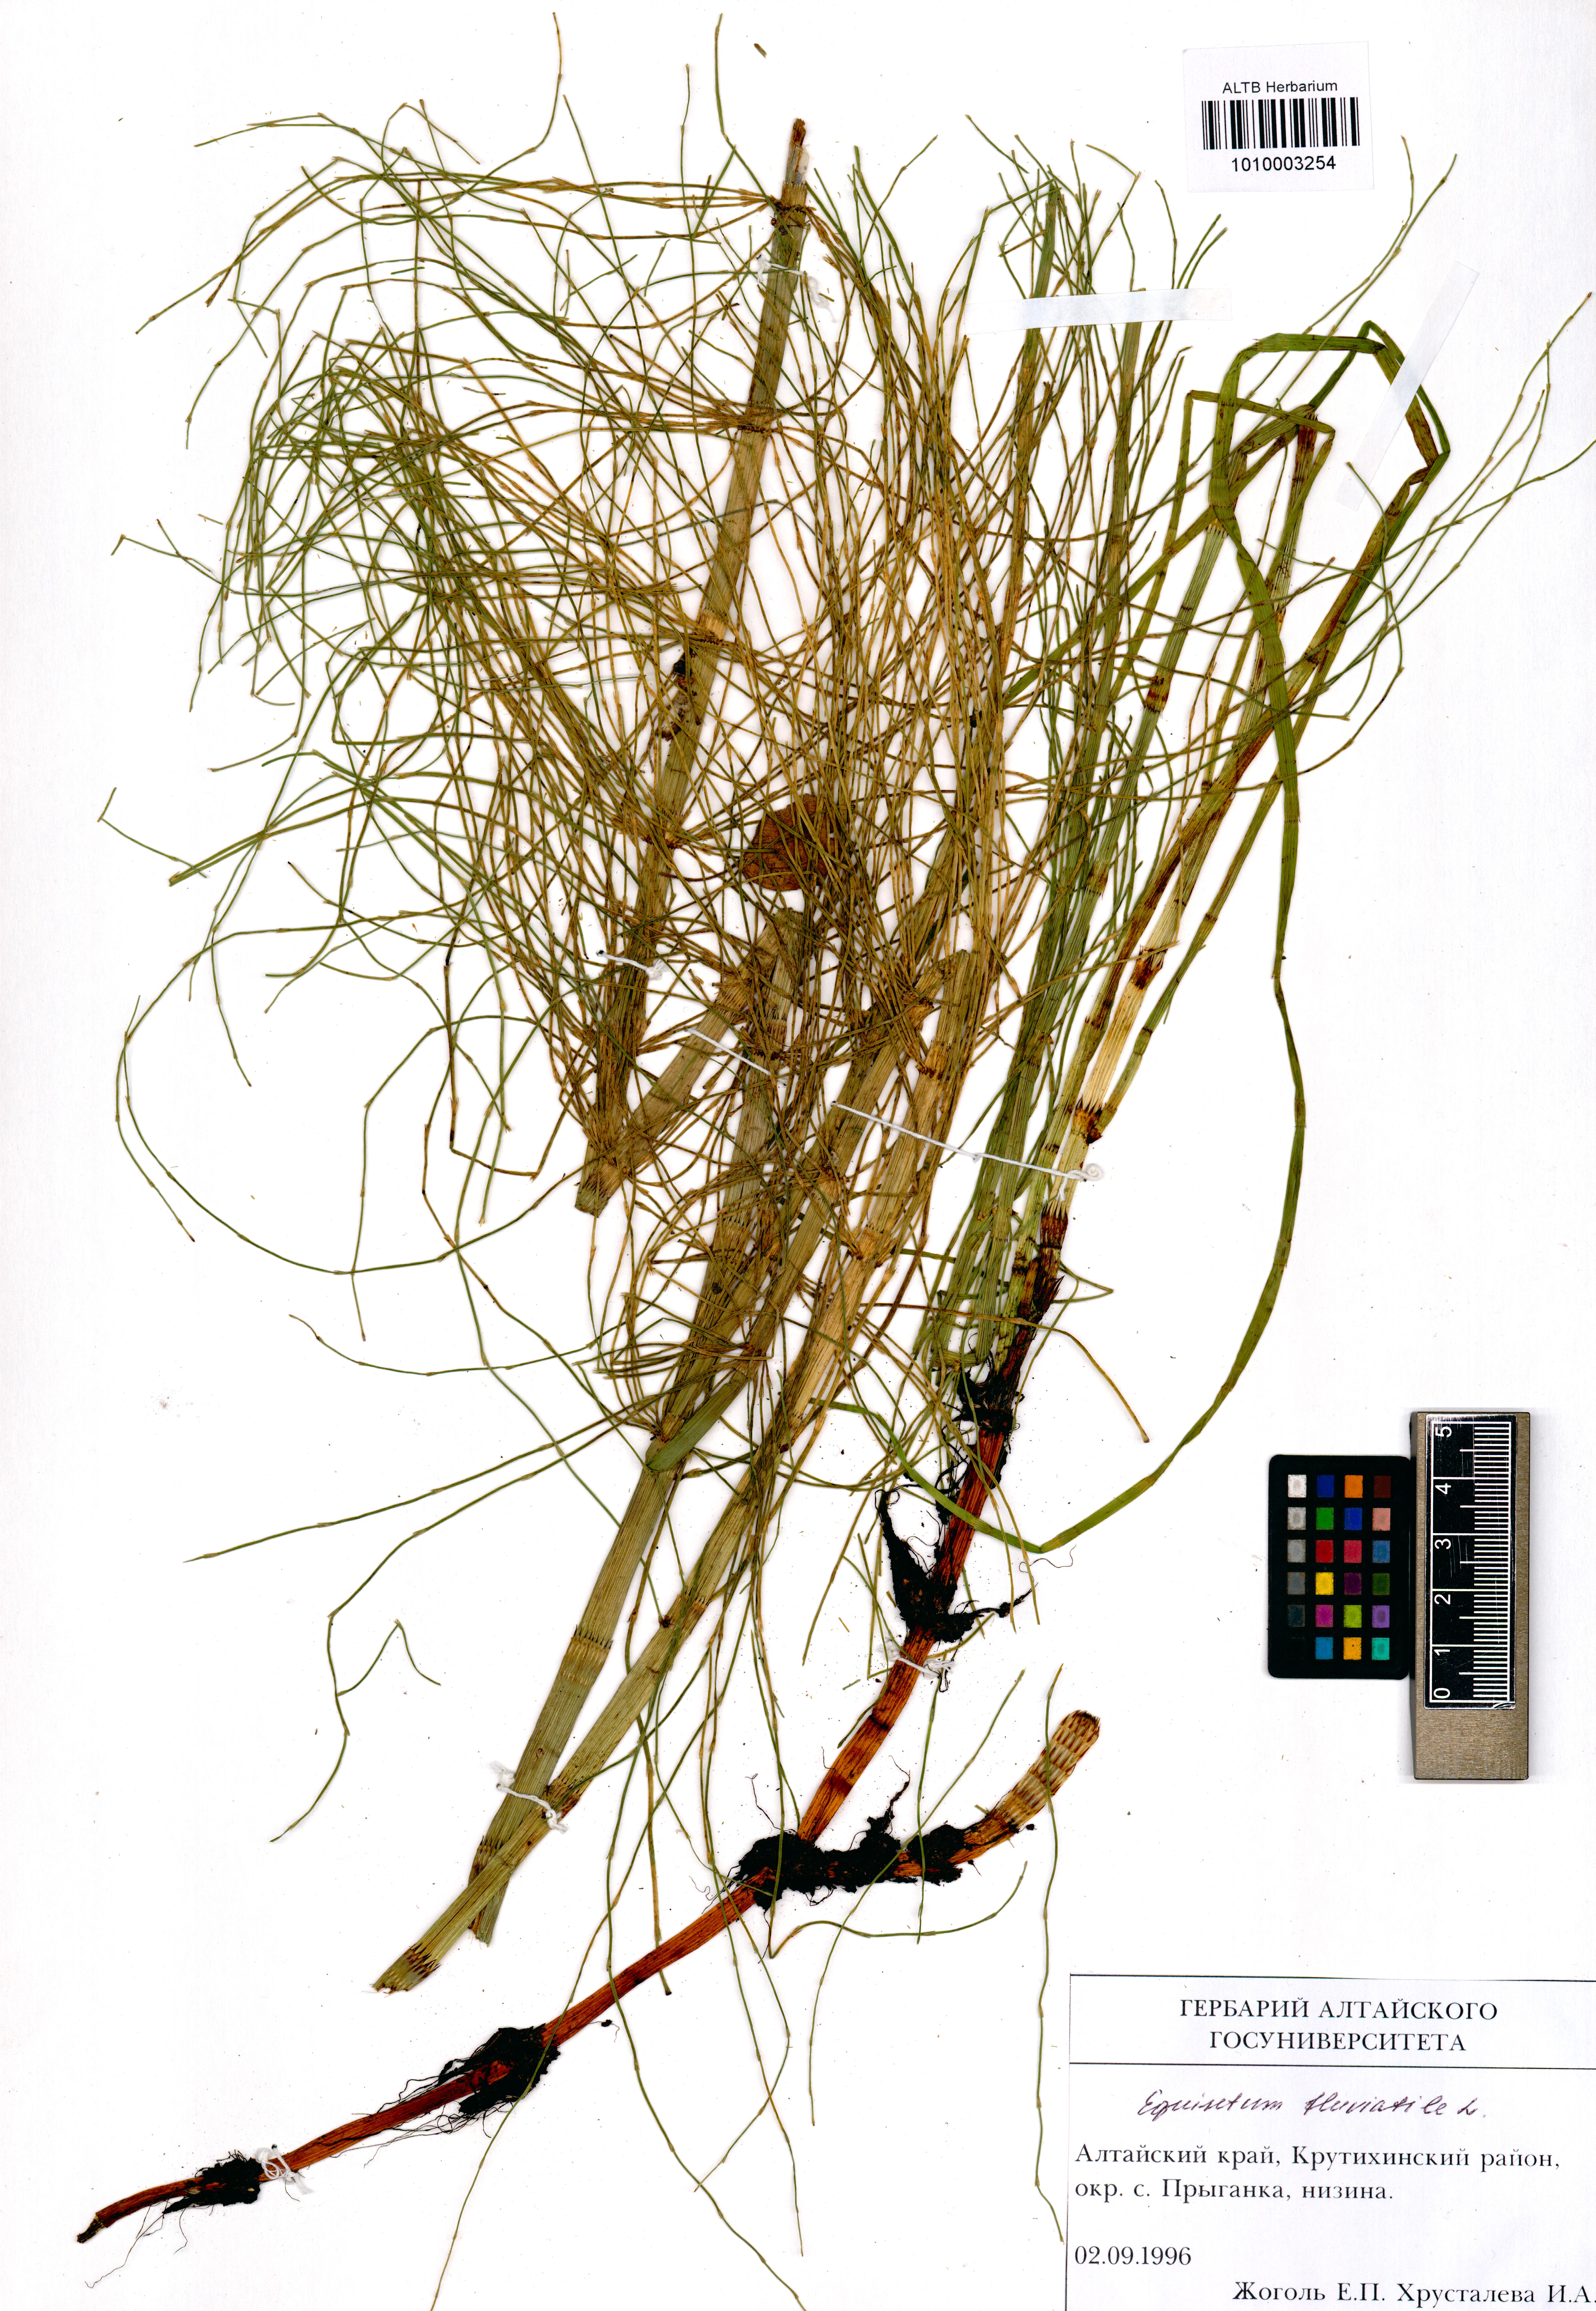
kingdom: Plantae
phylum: Tracheophyta
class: Polypodiopsida
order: Equisetales
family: Equisetaceae
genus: Equisetum
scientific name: Equisetum fluviatile
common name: Water horsetail
